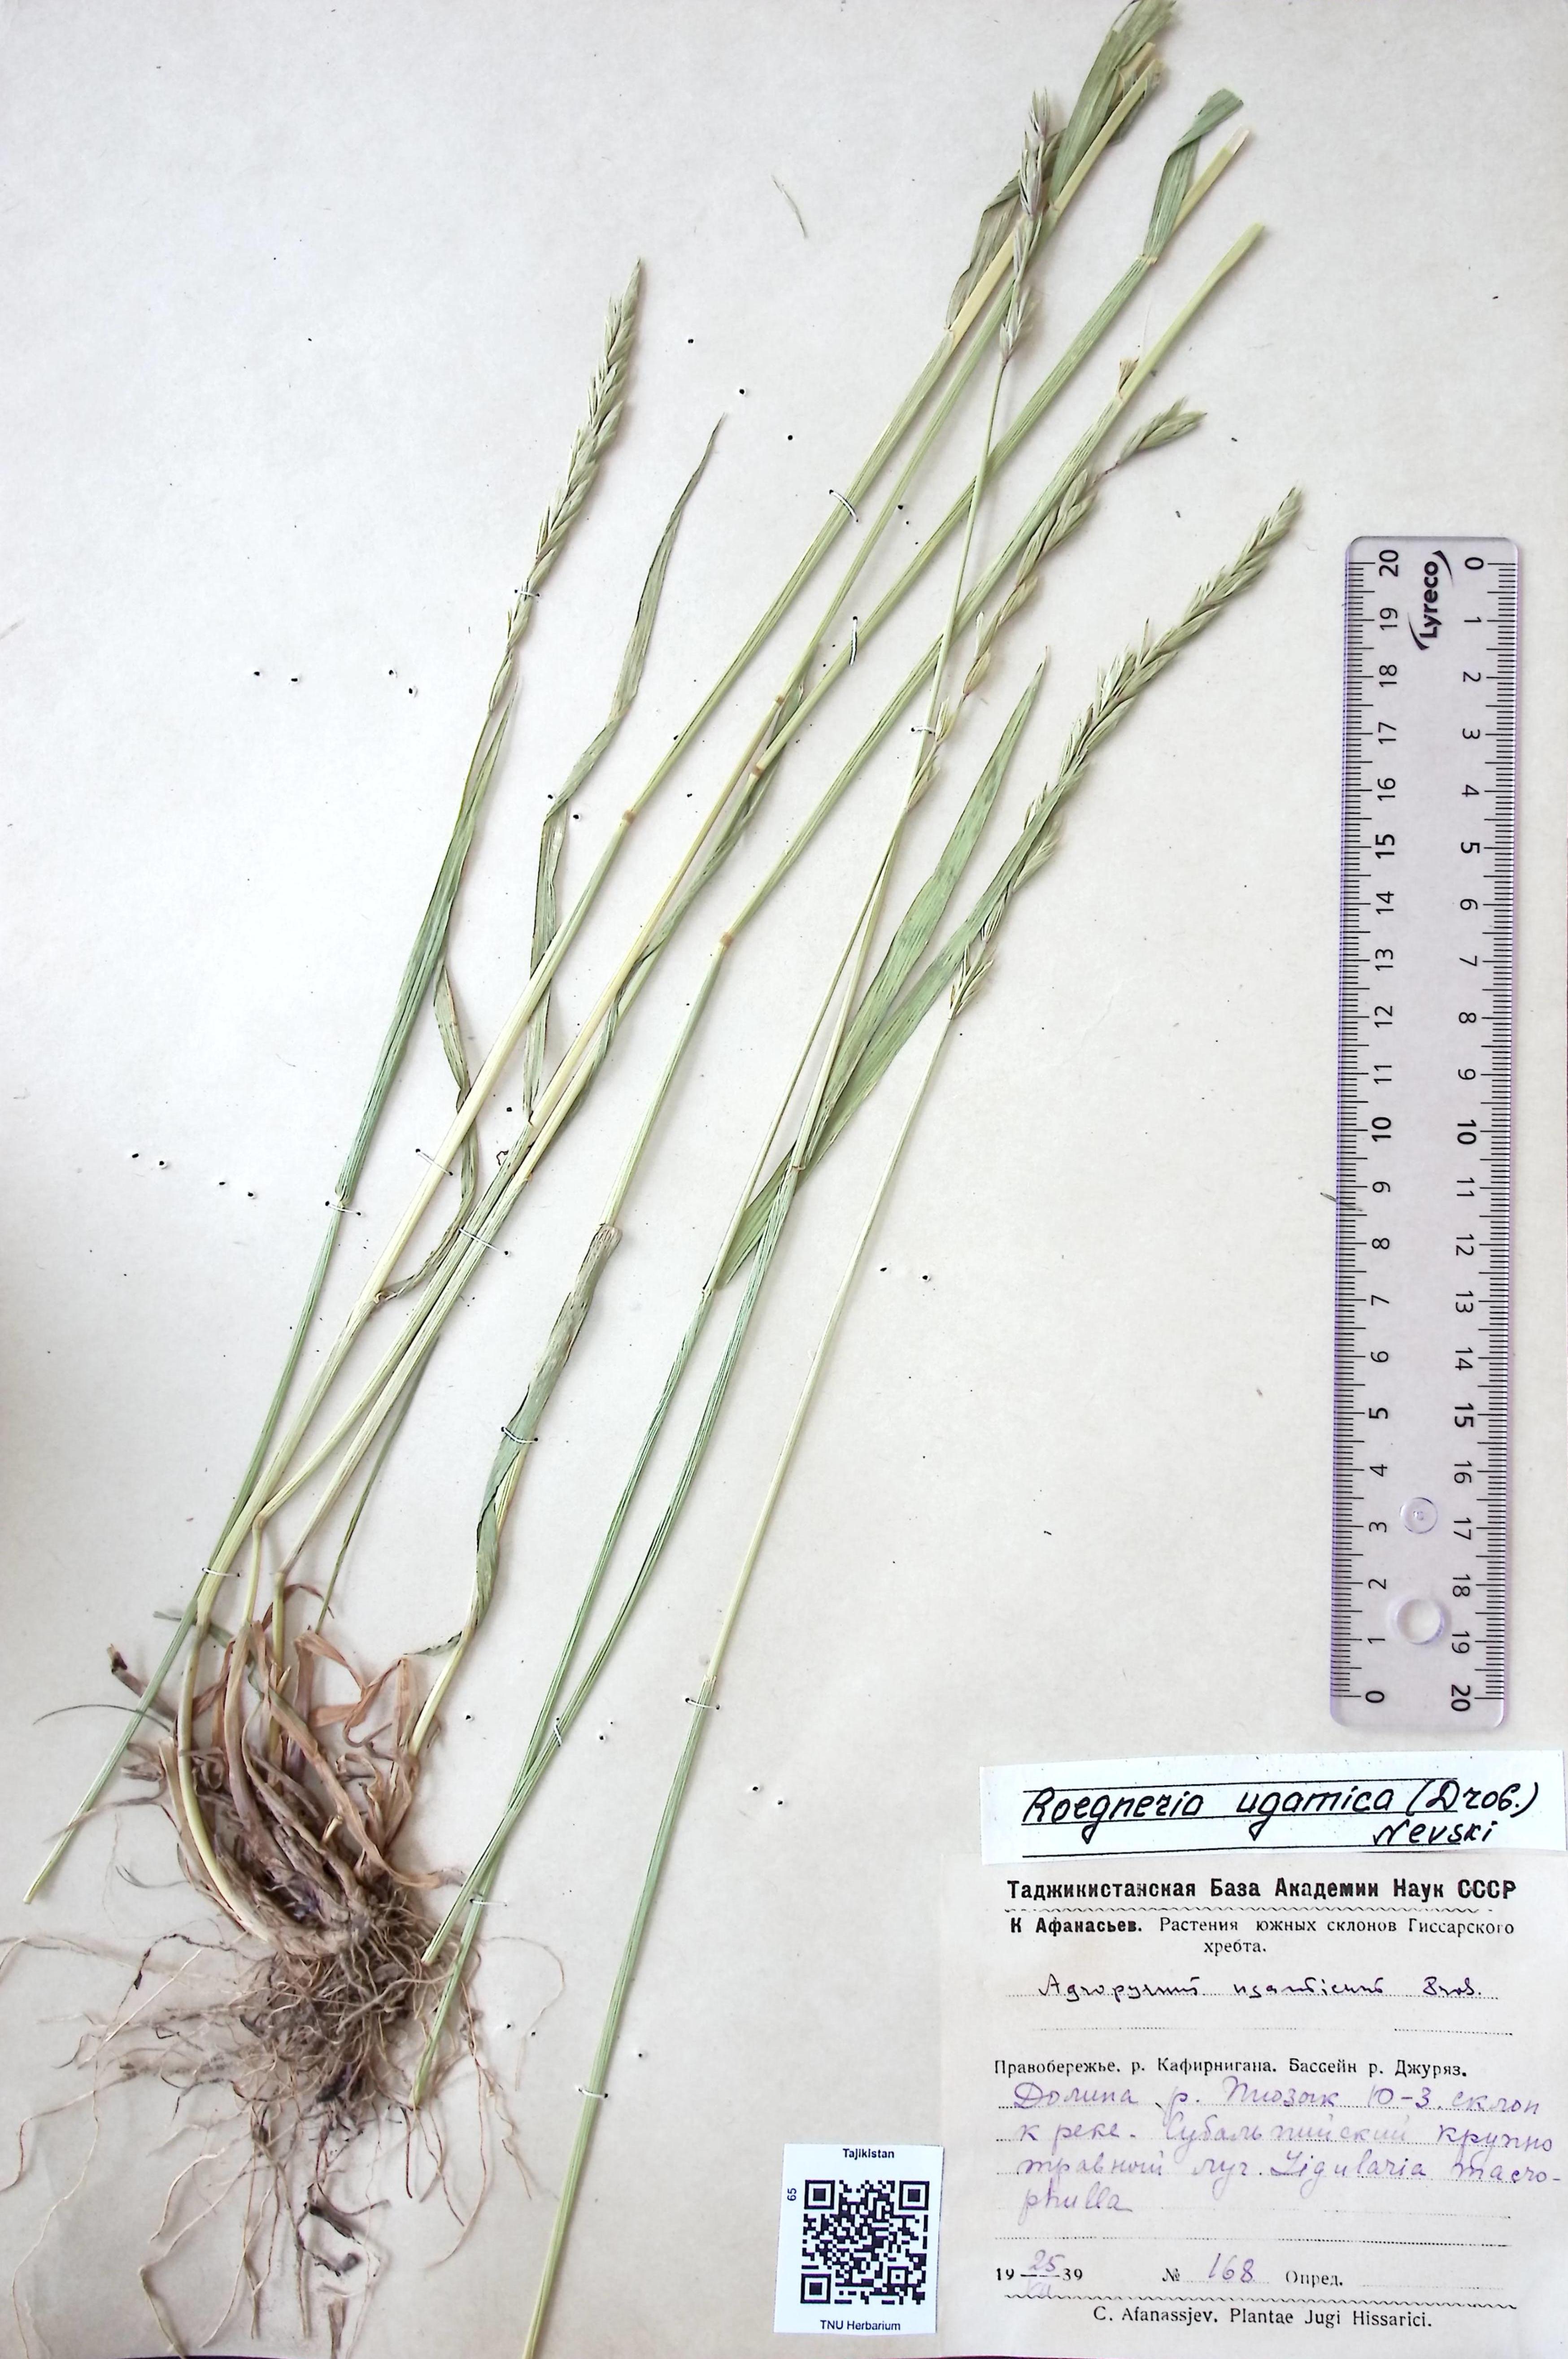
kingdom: Plantae
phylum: Tracheophyta
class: Liliopsida
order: Poales
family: Poaceae
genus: Elymus
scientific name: Elymus dentatus
